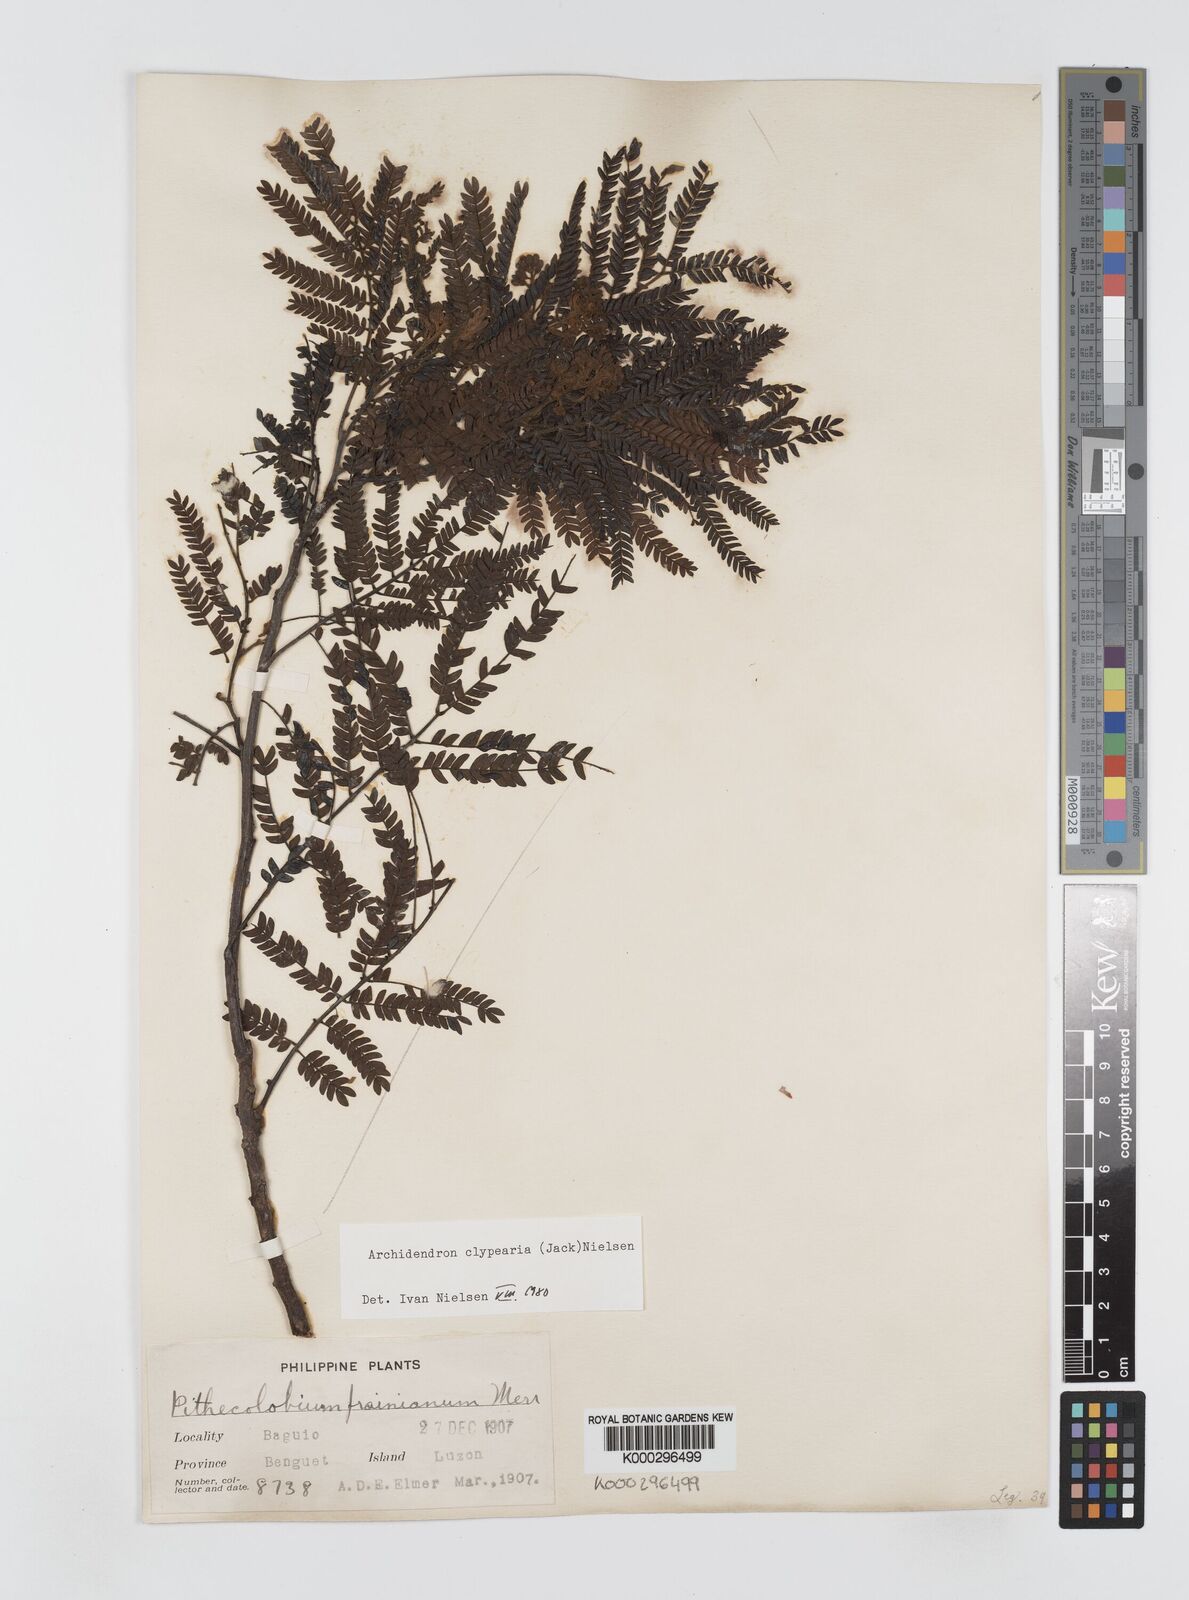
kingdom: Plantae
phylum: Tracheophyta
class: Magnoliopsida
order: Fabales
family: Fabaceae
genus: Archidendron
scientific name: Archidendron clypearia
